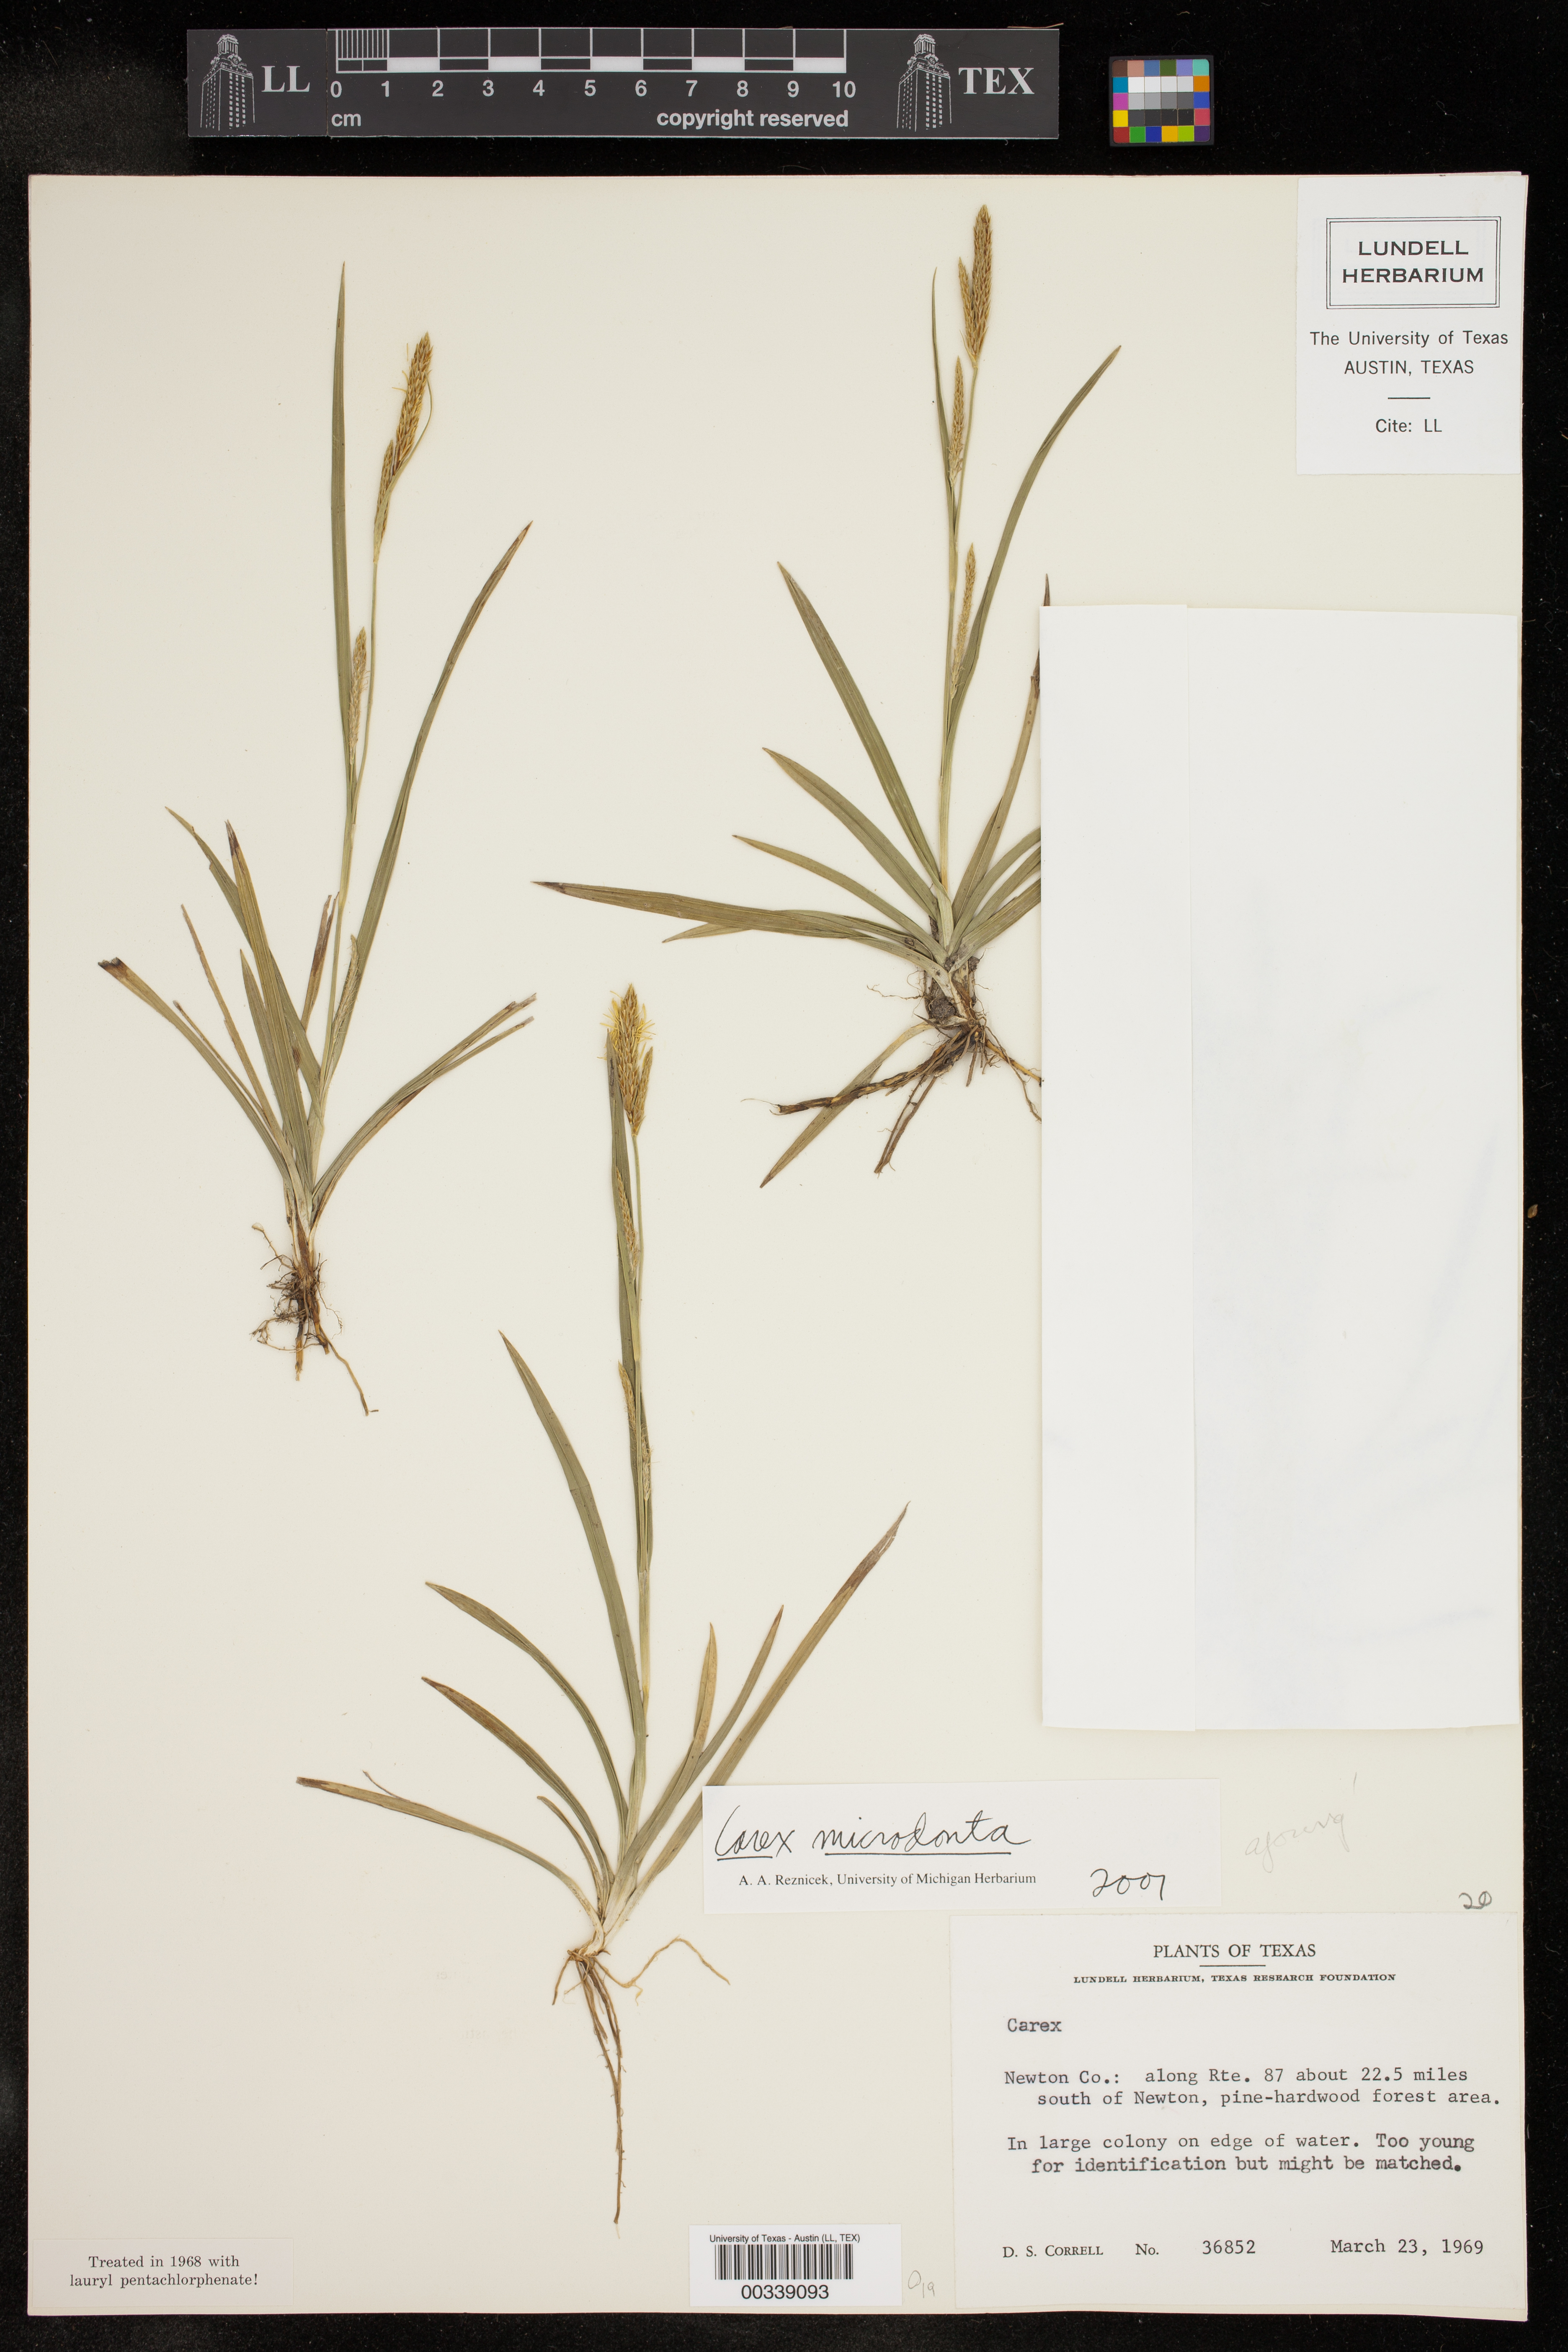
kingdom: Plantae
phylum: Tracheophyta
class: Liliopsida
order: Poales
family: Cyperaceae
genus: Carex
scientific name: Carex microdonta
